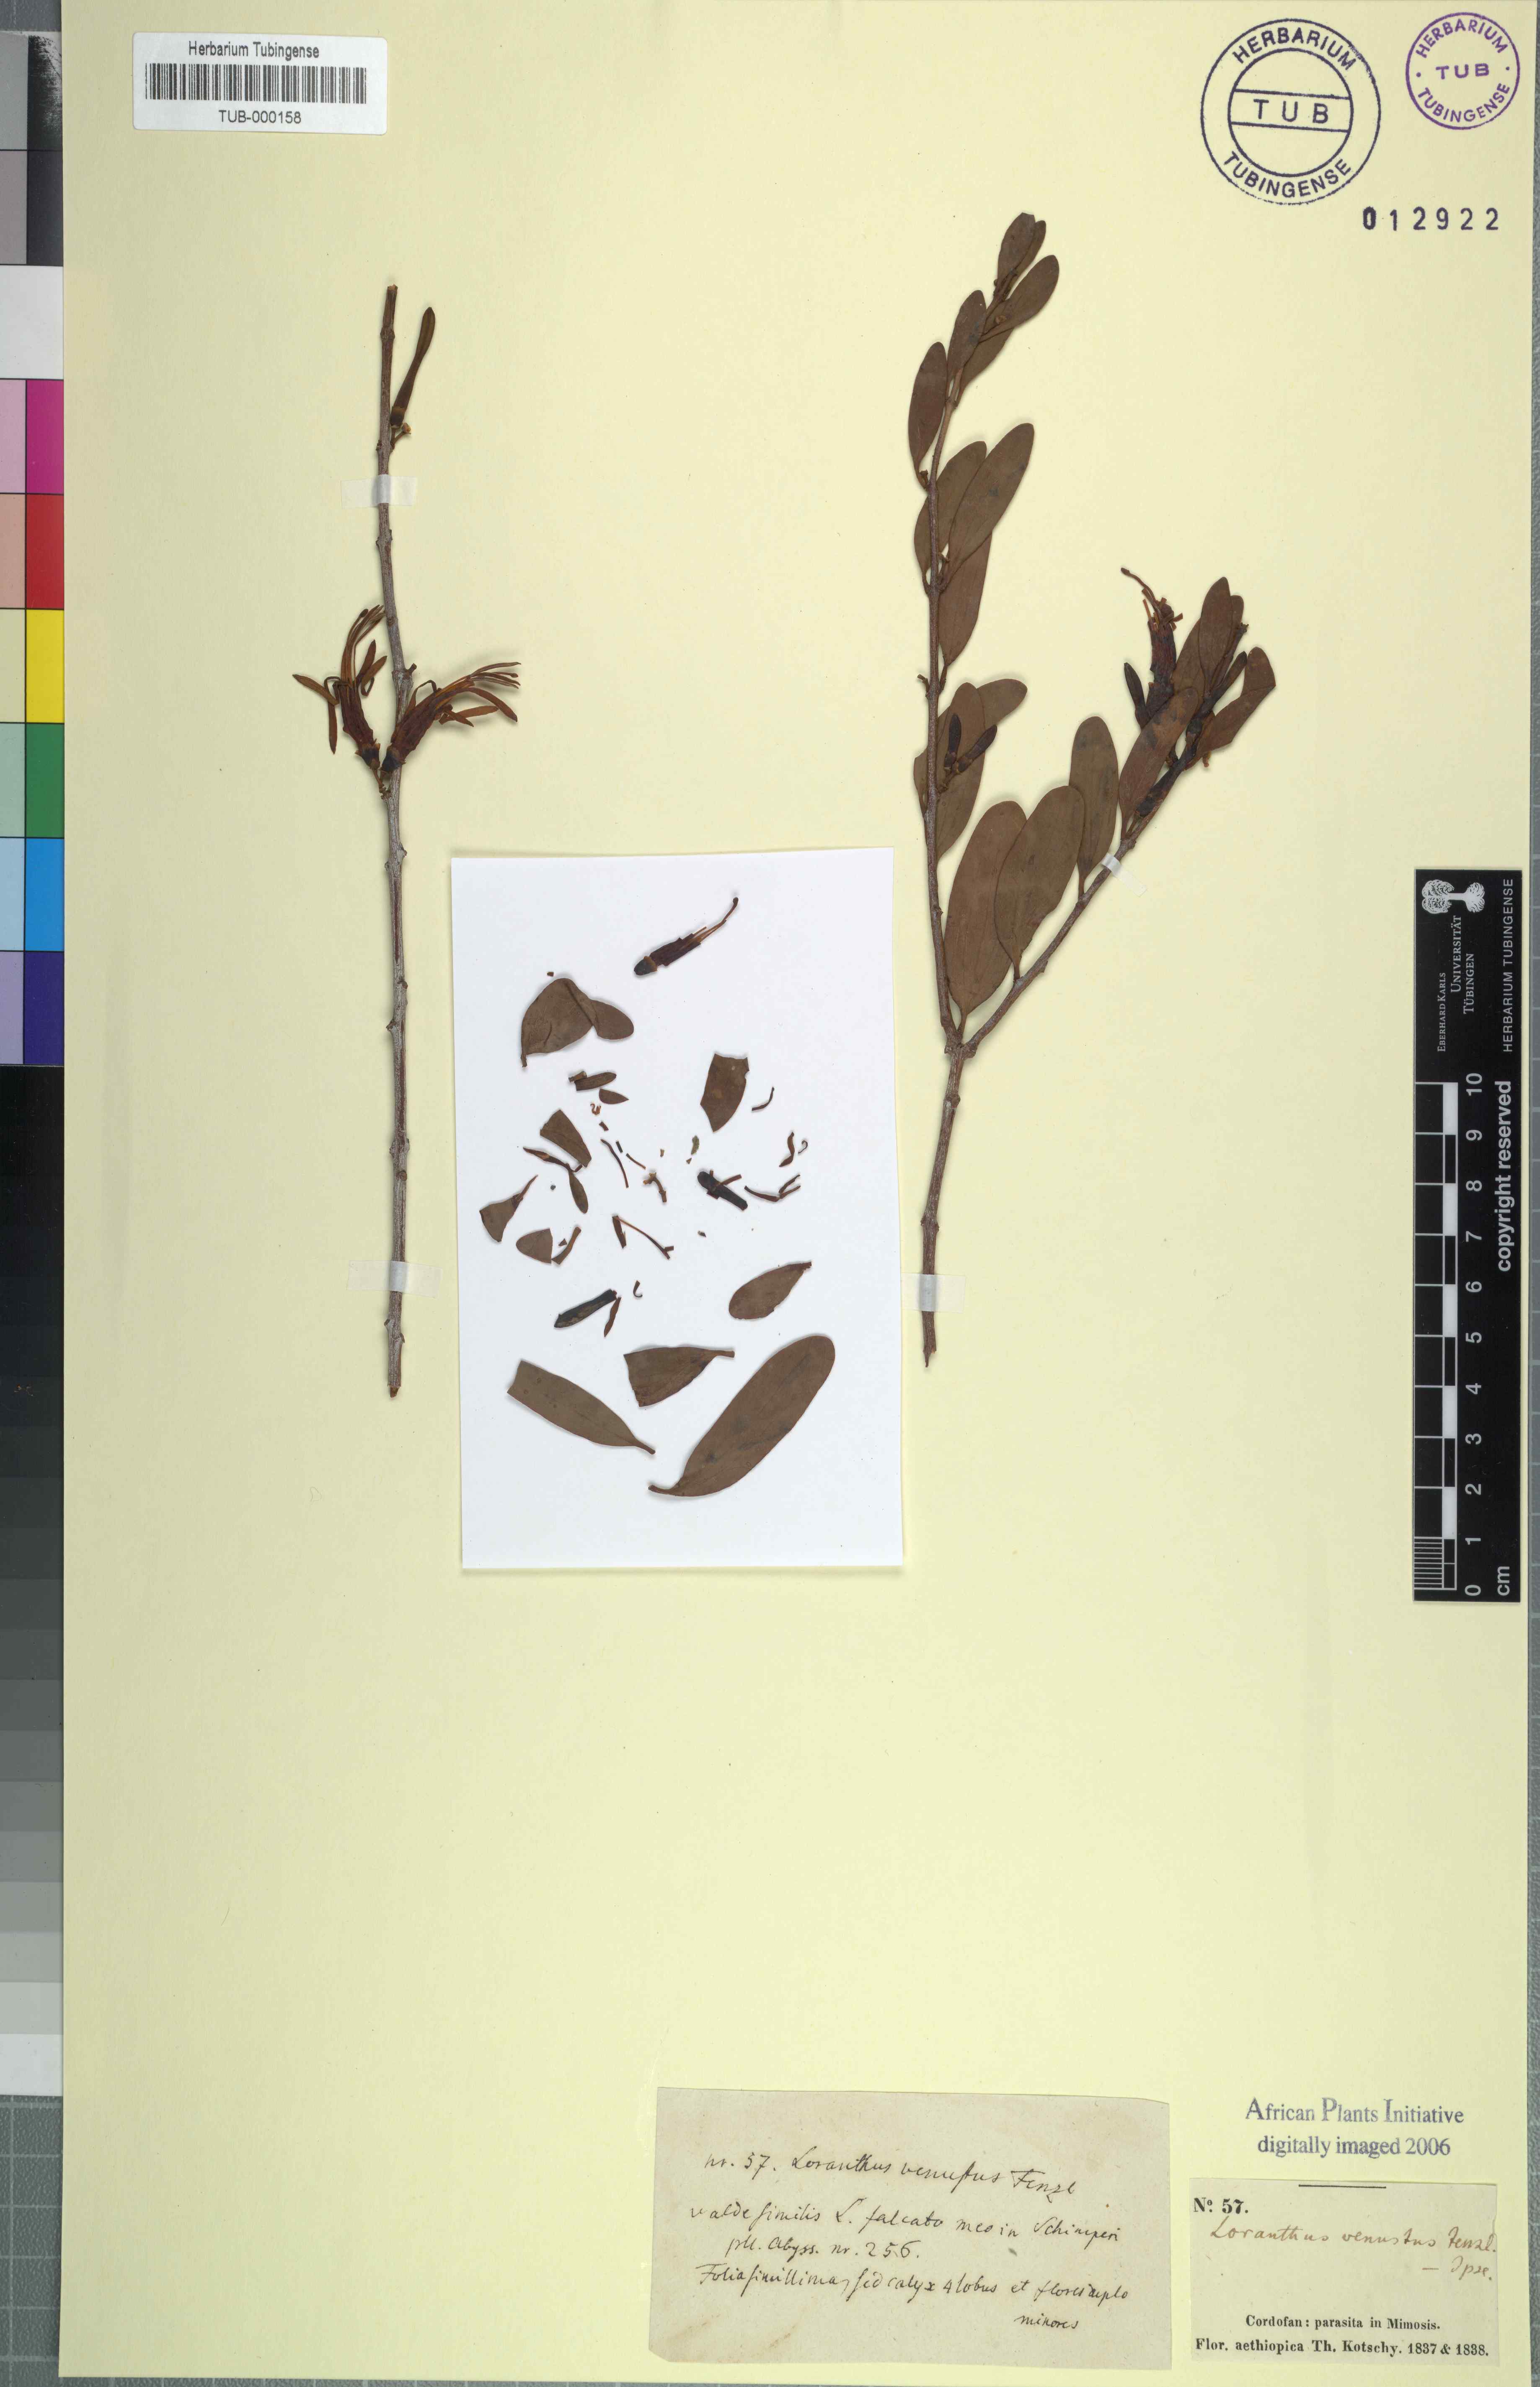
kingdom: Plantae
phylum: Tracheophyta
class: Magnoliopsida
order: Santalales
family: Loranthaceae
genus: Plicosepalus
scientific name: Plicosepalus acaciae
